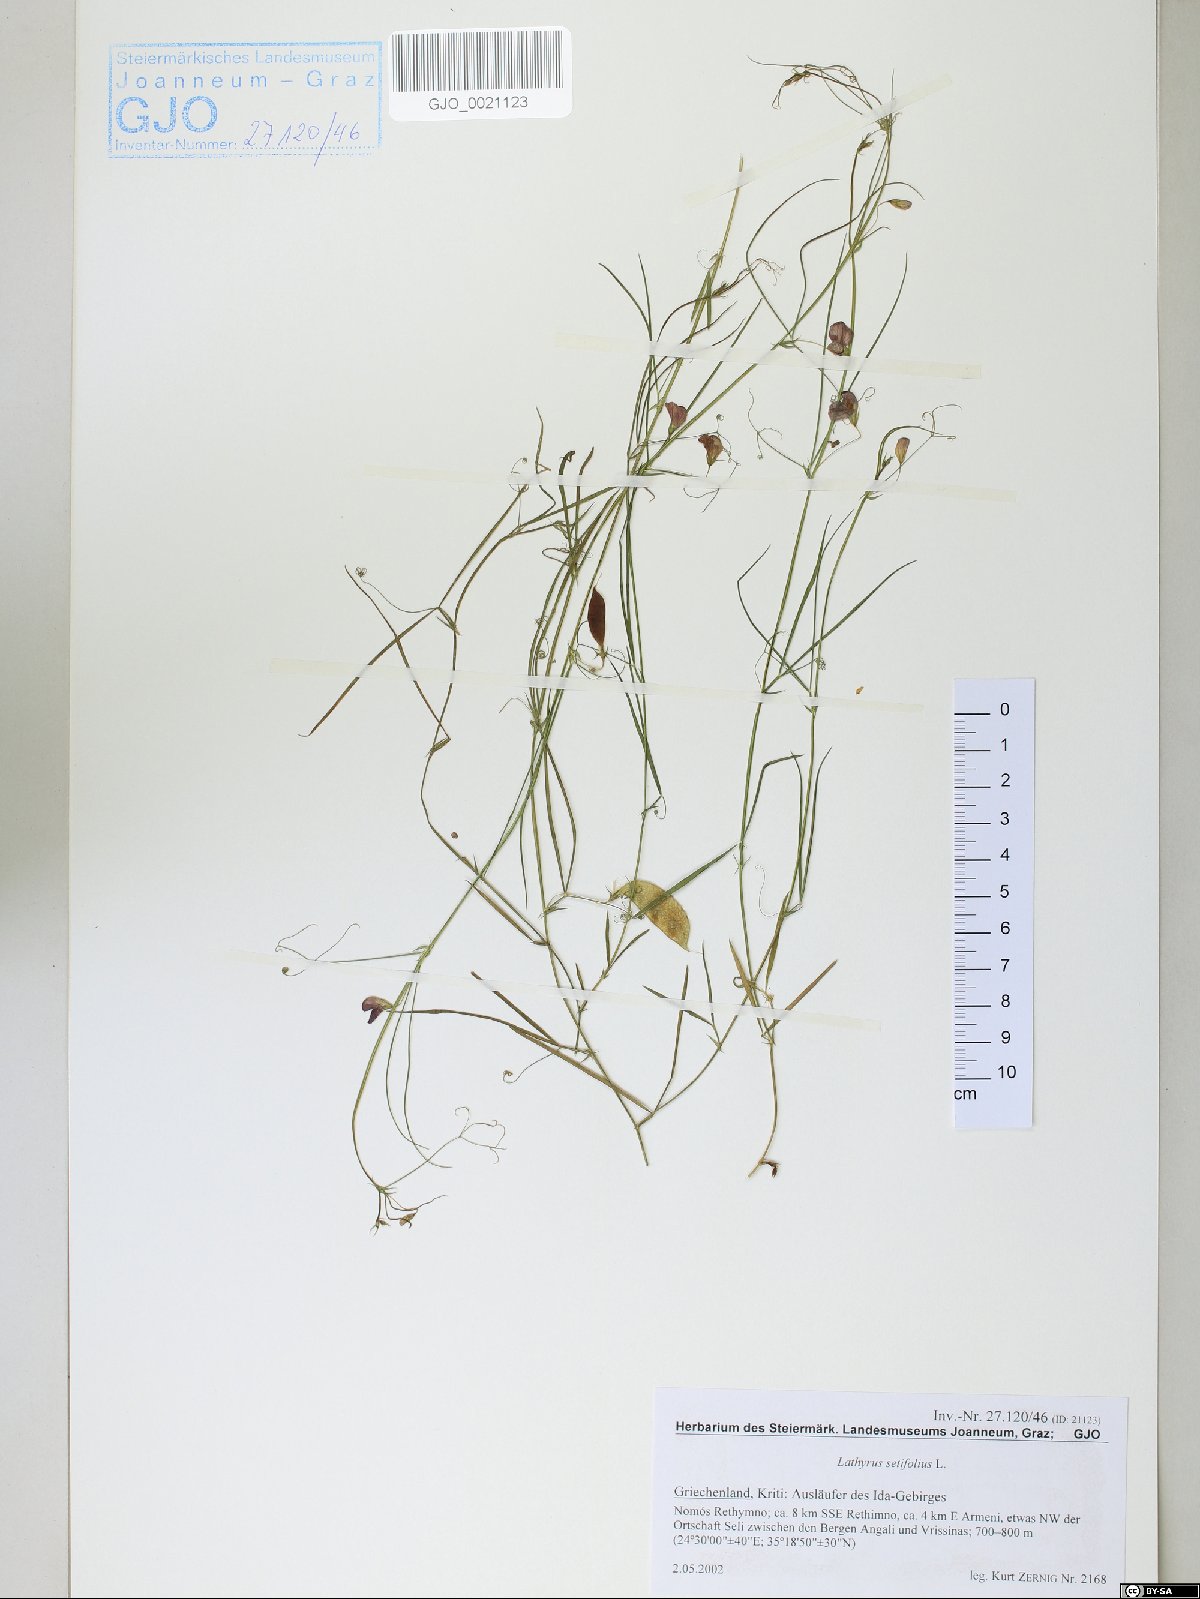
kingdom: Plantae
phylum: Tracheophyta
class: Magnoliopsida
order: Fabales
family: Fabaceae
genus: Lathyrus
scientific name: Lathyrus setifolius
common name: Brown vetchling
